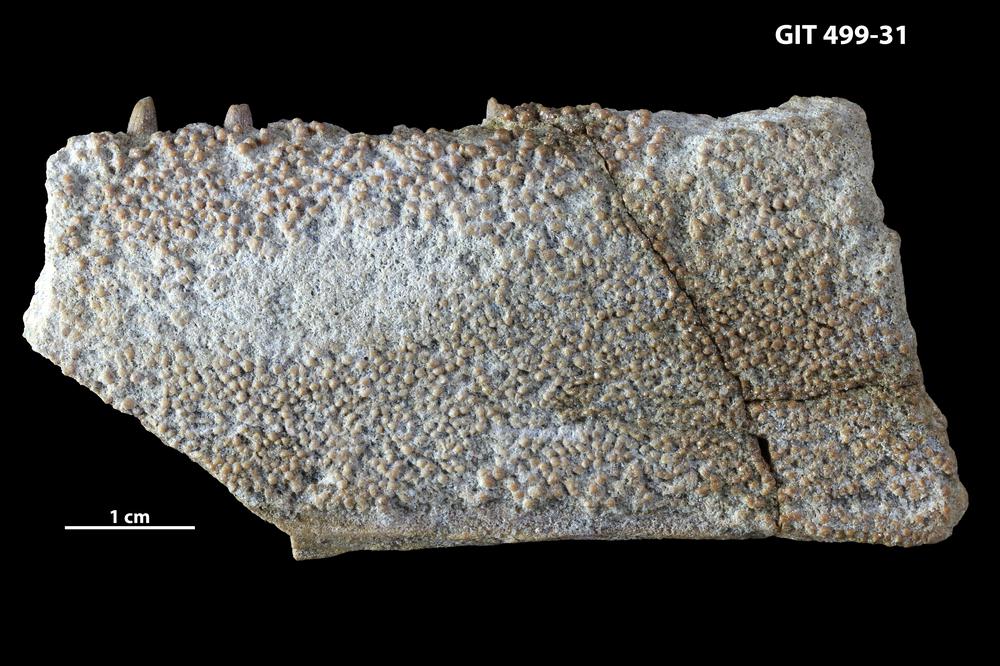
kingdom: Animalia
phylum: Chordata
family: Holoptychiidae
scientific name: Holoptychiidae
